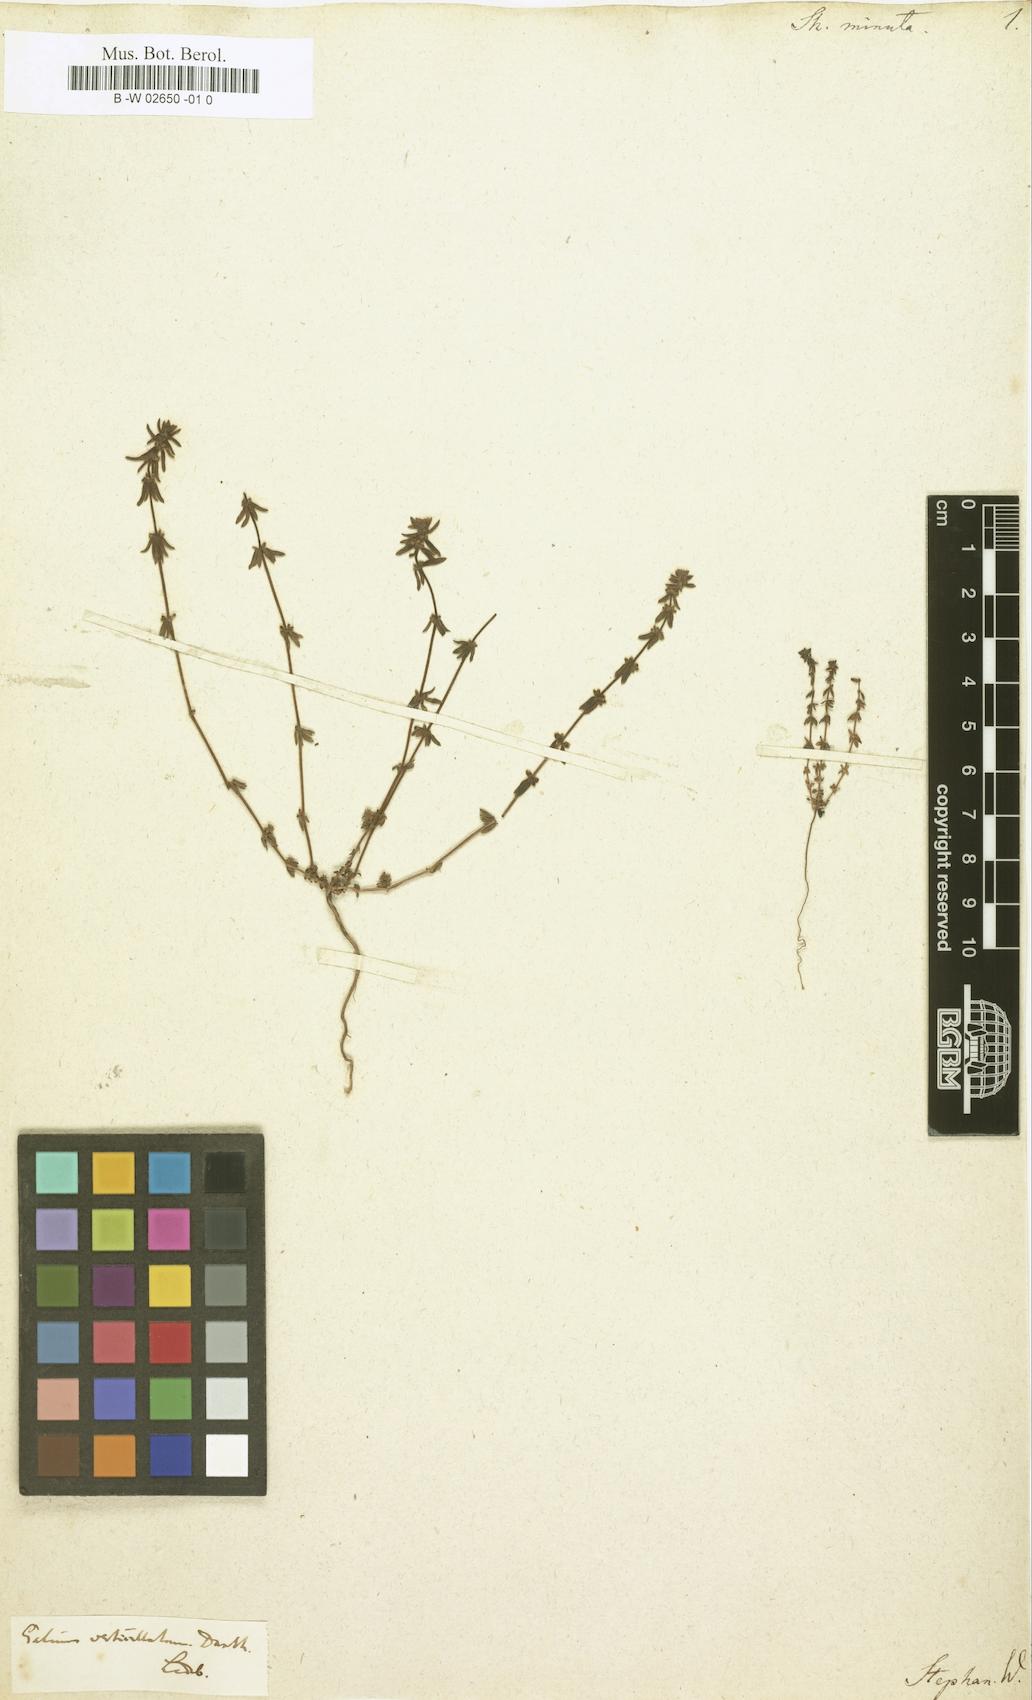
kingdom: Plantae
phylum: Tracheophyta
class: Magnoliopsida
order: Gentianales
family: Rubiaceae
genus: Galium
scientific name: Galium verticillatum
